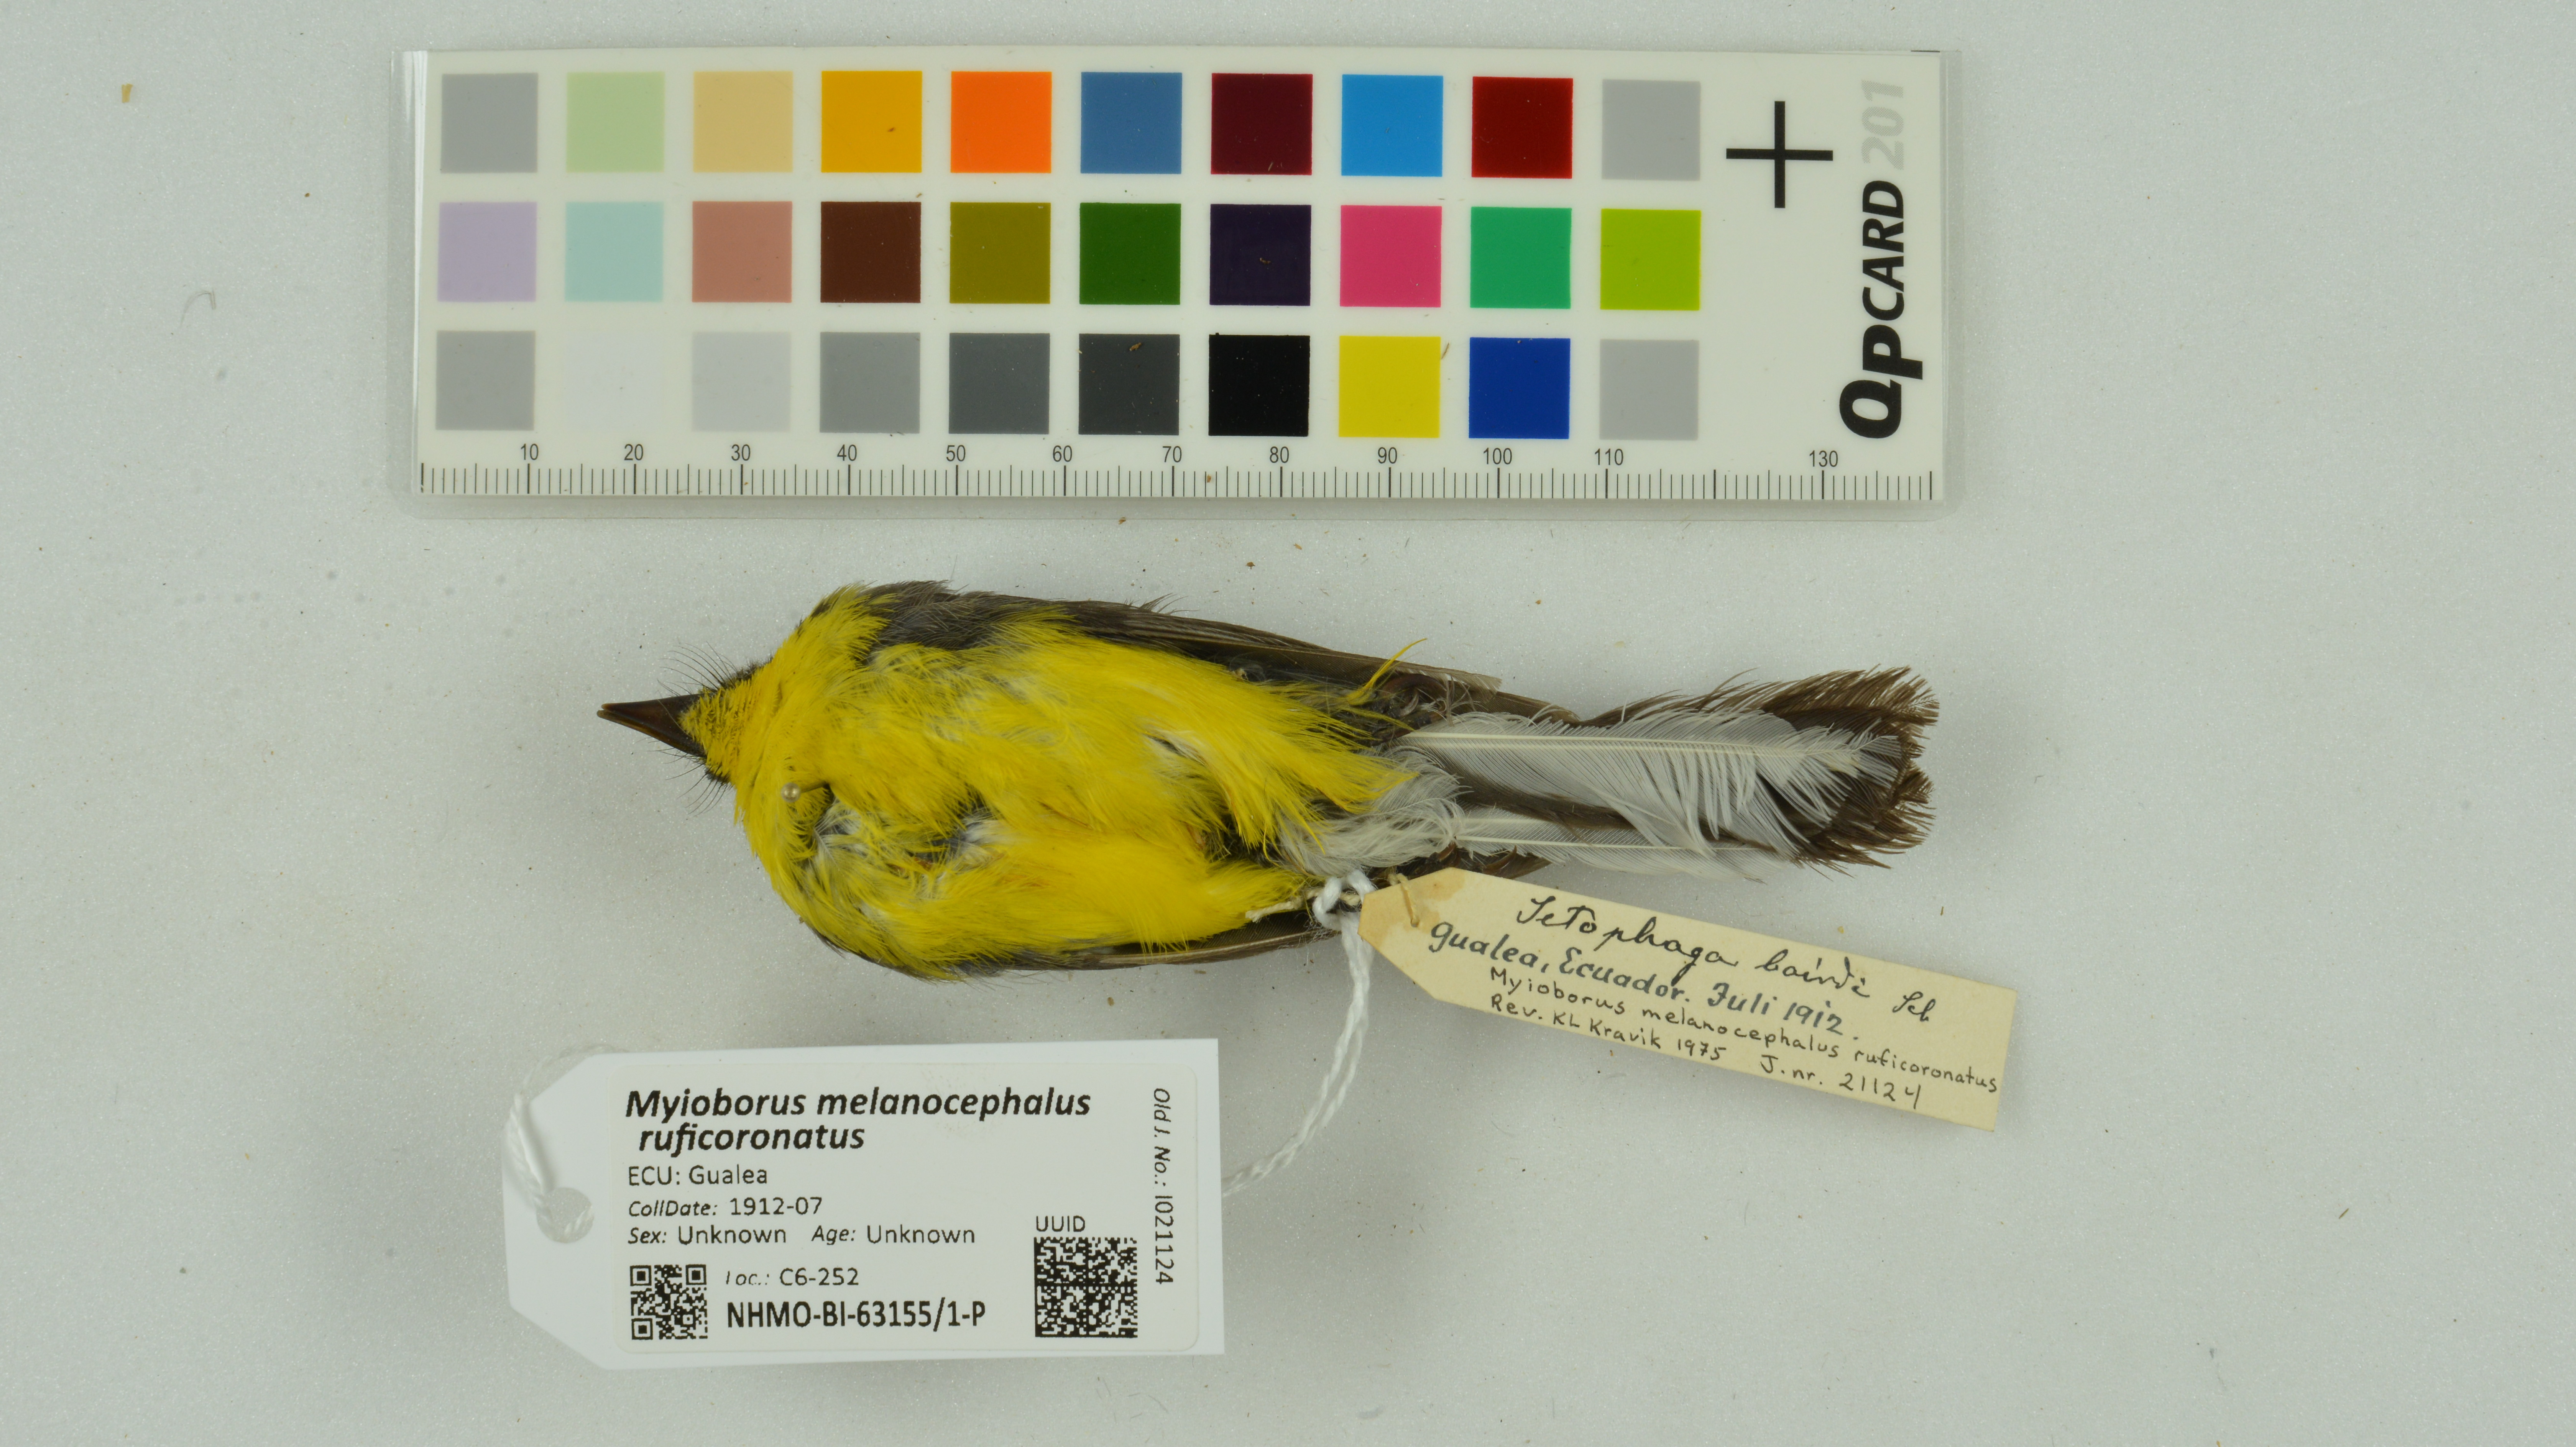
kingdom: Animalia
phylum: Chordata
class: Aves
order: Passeriformes
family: Parulidae
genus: Myioborus
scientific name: Myioborus melanocephalus
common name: Spectacled whitestart
